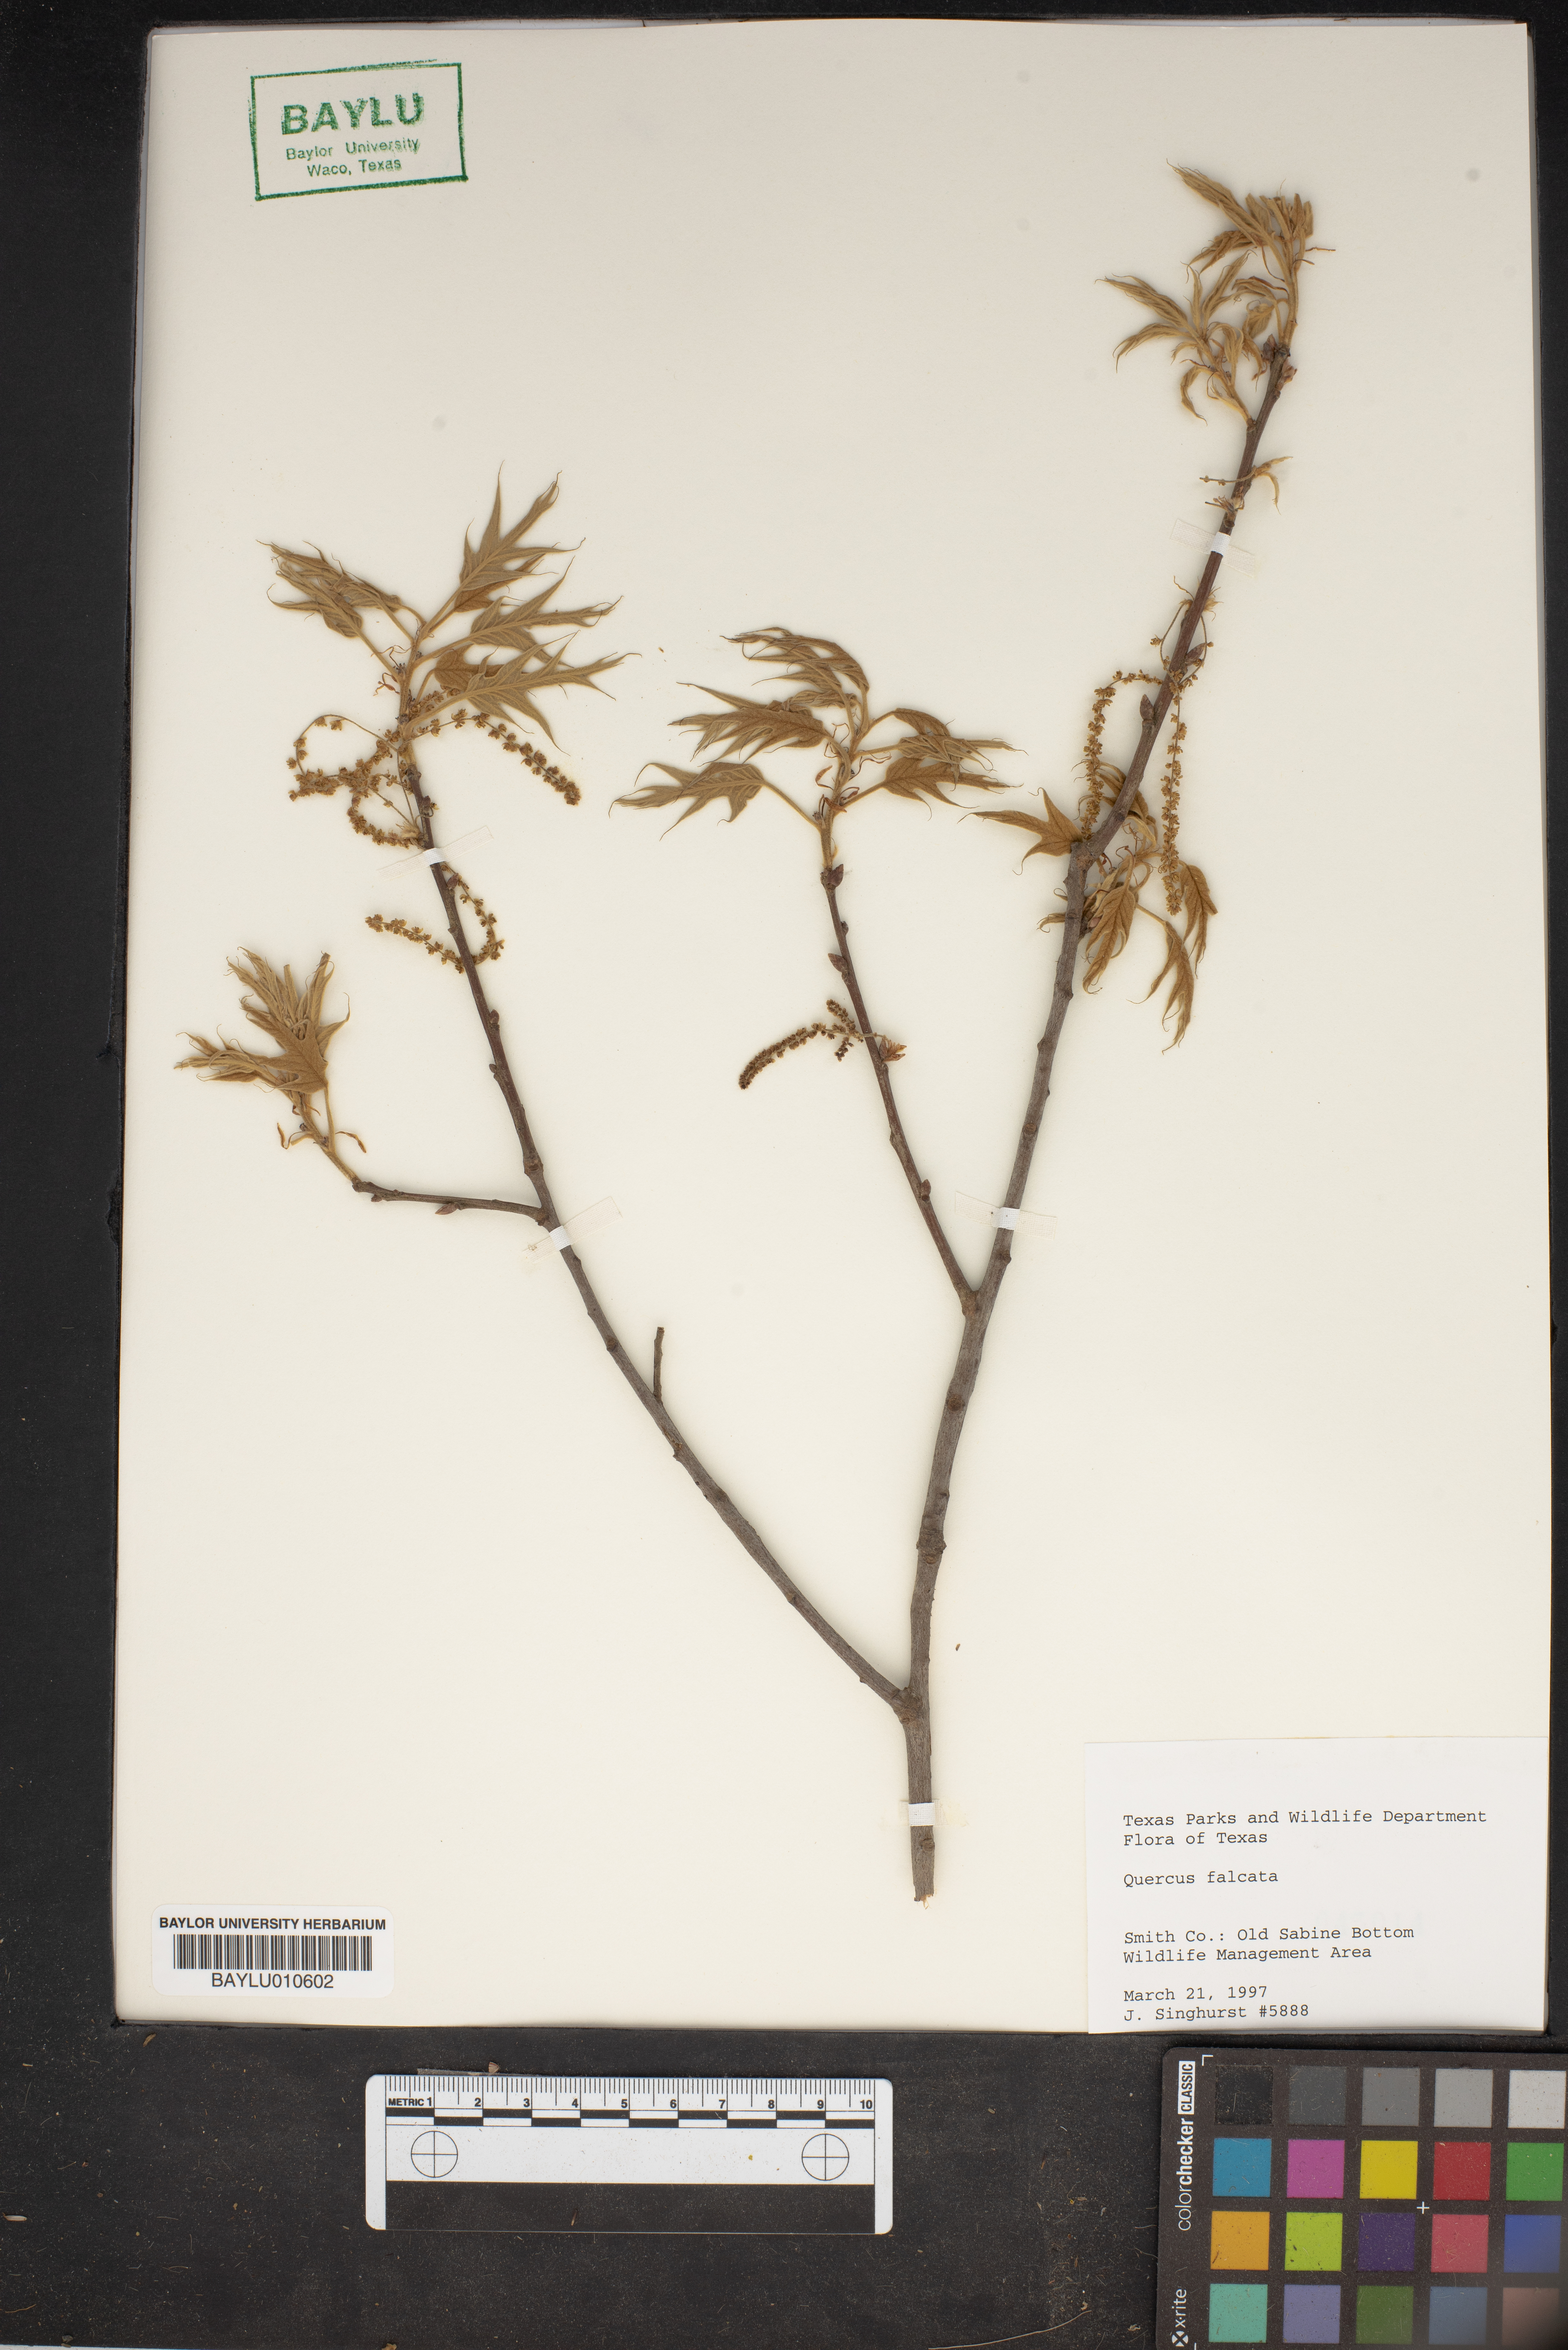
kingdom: Plantae
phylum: Tracheophyta
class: Magnoliopsida
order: Fagales
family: Fagaceae
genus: Quercus
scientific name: Quercus falcata
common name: Southern red oak
